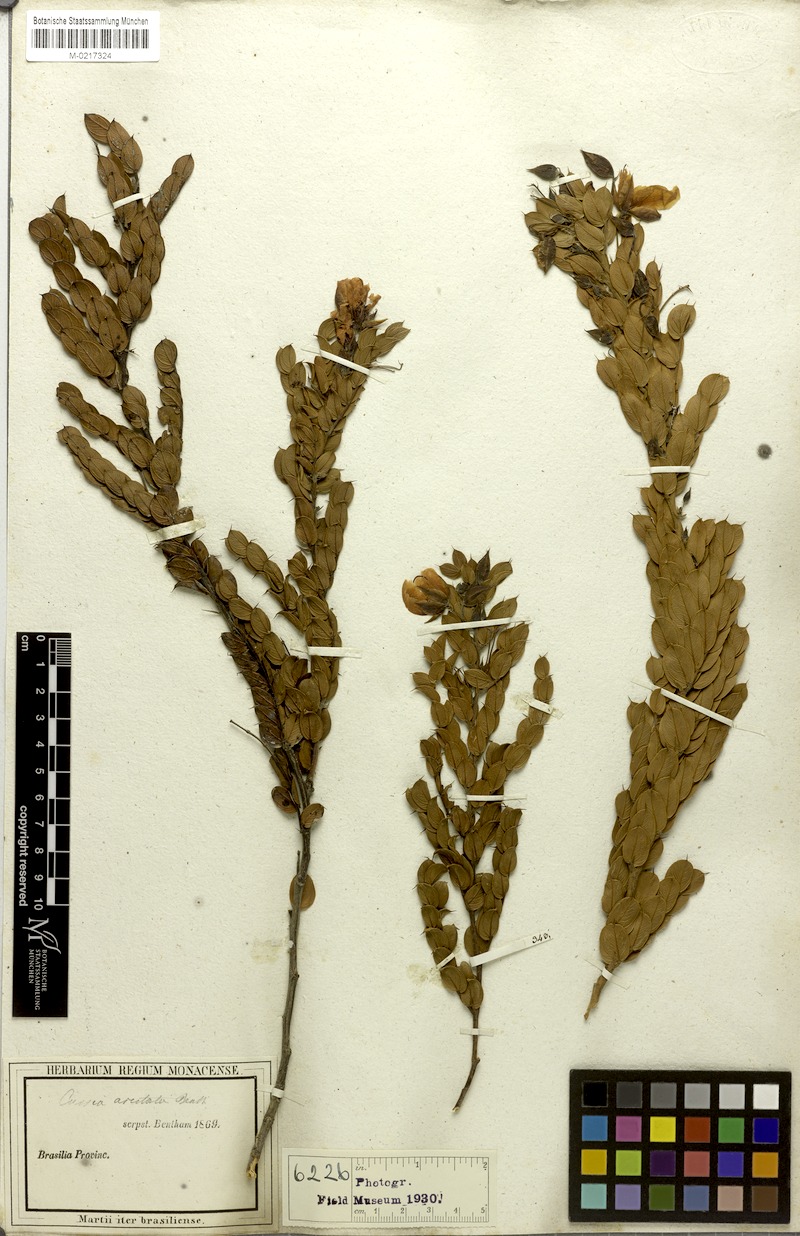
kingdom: Plantae
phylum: Tracheophyta
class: Magnoliopsida
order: Fabales
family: Fabaceae
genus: Chamaecrista
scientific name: Chamaecrista aristata
